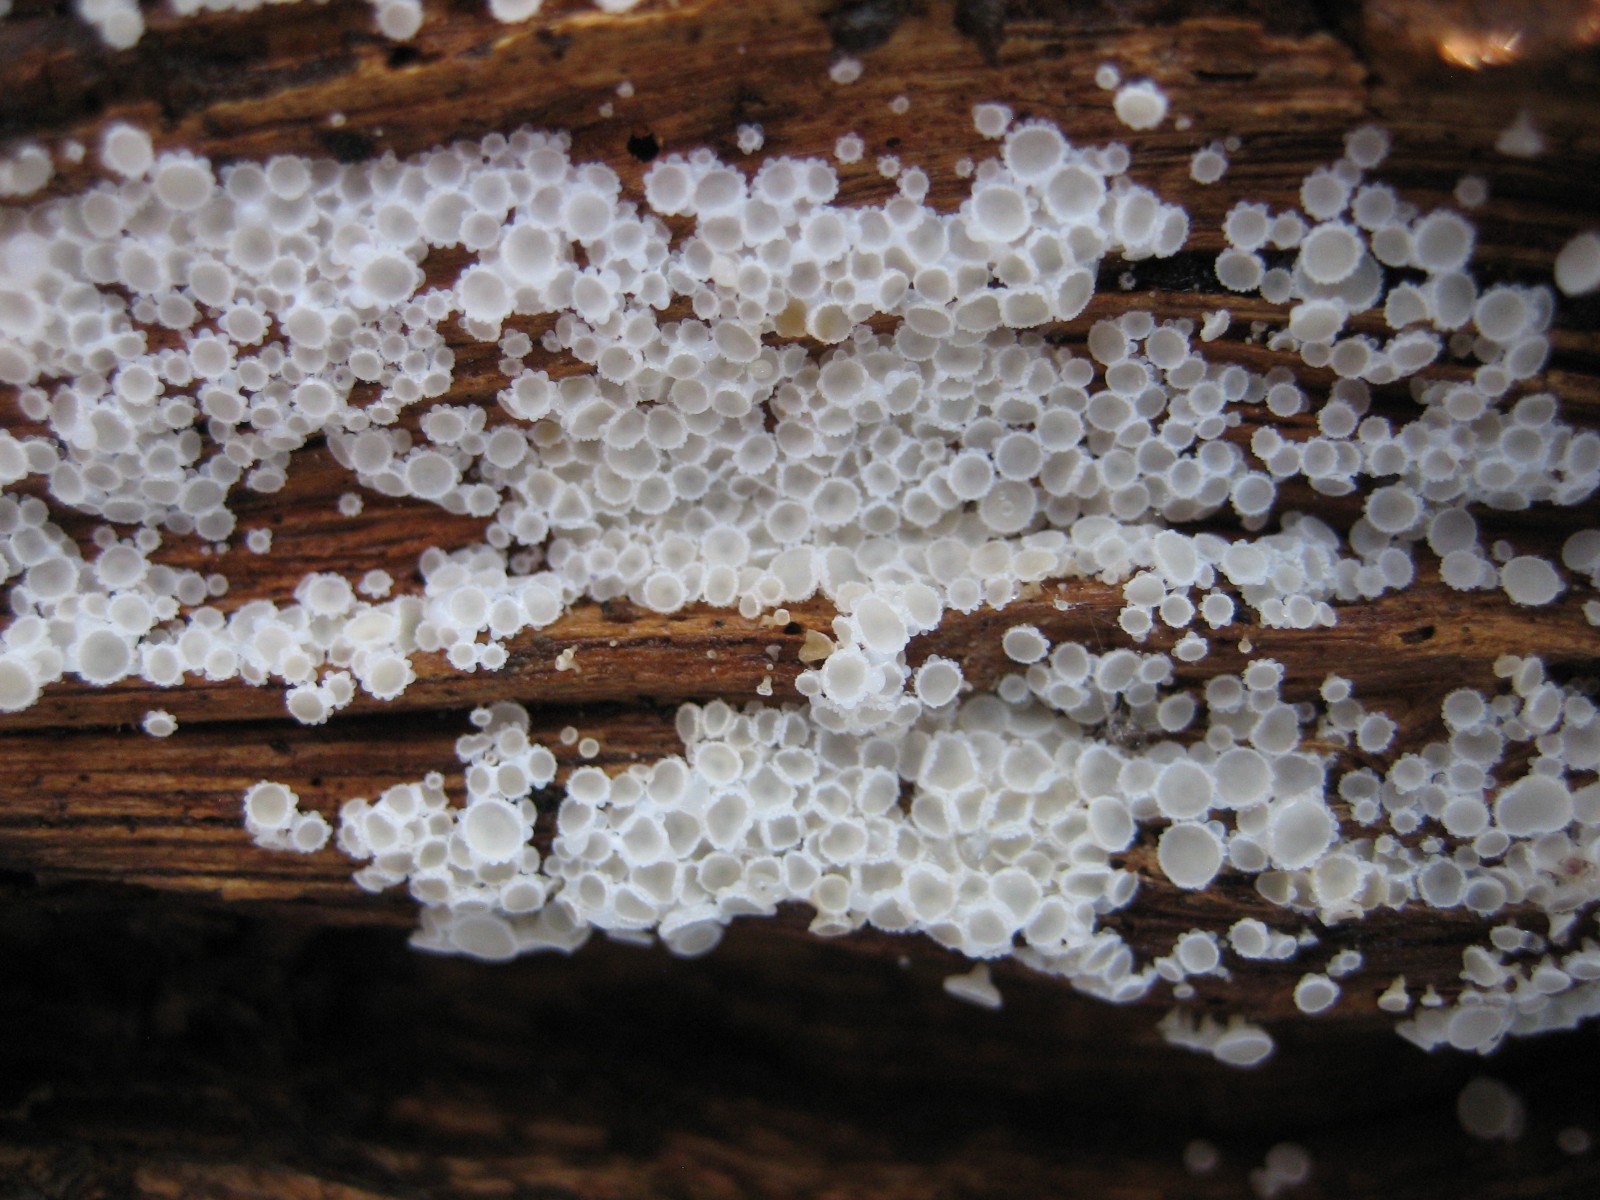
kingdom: Fungi
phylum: Ascomycota
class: Leotiomycetes
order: Helotiales
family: Lachnaceae
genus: Lachnum
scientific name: Lachnum
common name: frynseskive
